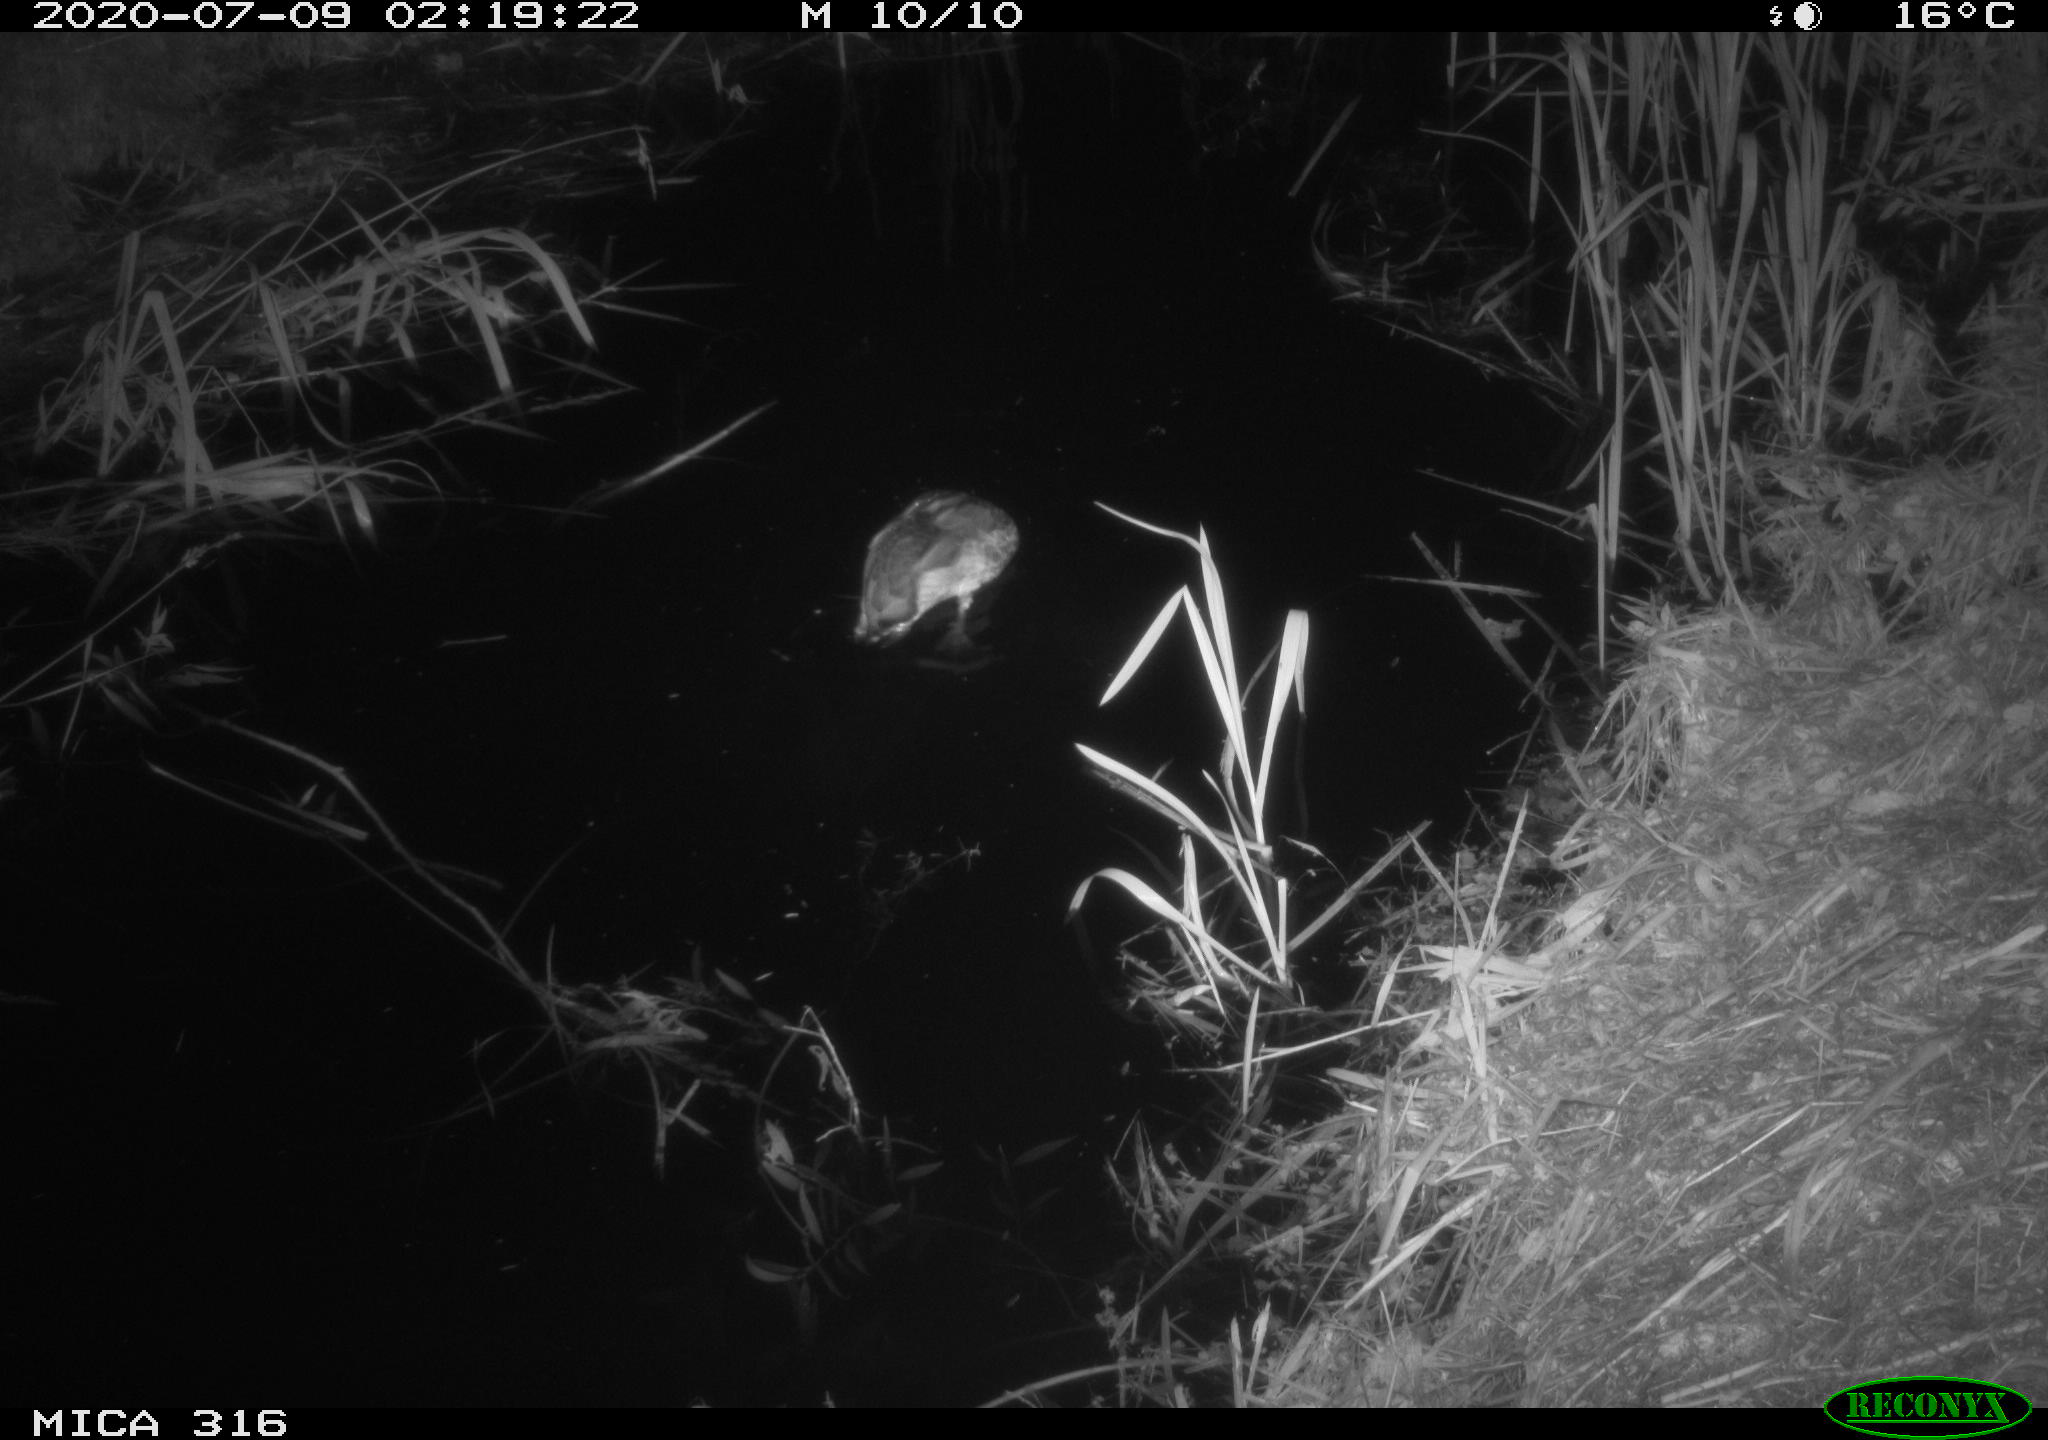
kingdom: Animalia
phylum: Chordata
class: Aves
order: Anseriformes
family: Anatidae
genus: Anas
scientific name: Anas platyrhynchos
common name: Mallard
